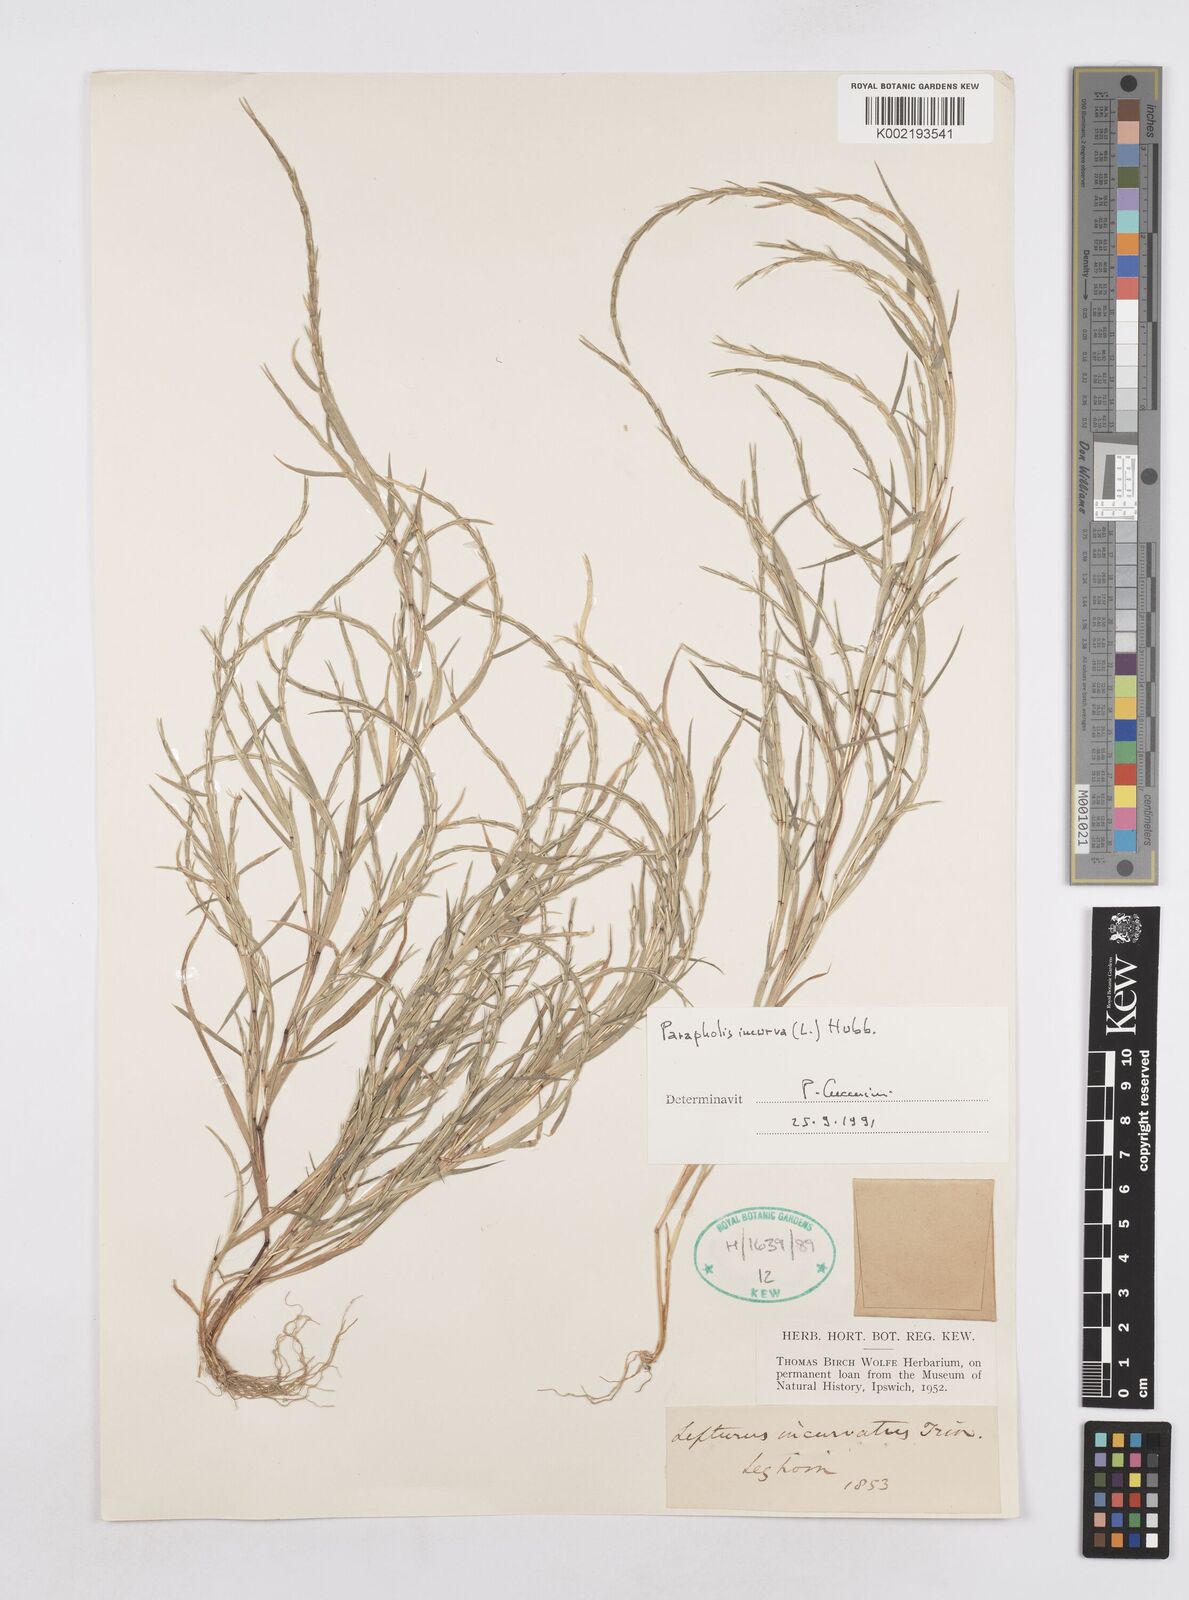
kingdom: Plantae
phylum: Tracheophyta
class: Liliopsida
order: Poales
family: Poaceae
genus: Parapholis
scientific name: Parapholis incurva
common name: Curved sicklegrass
